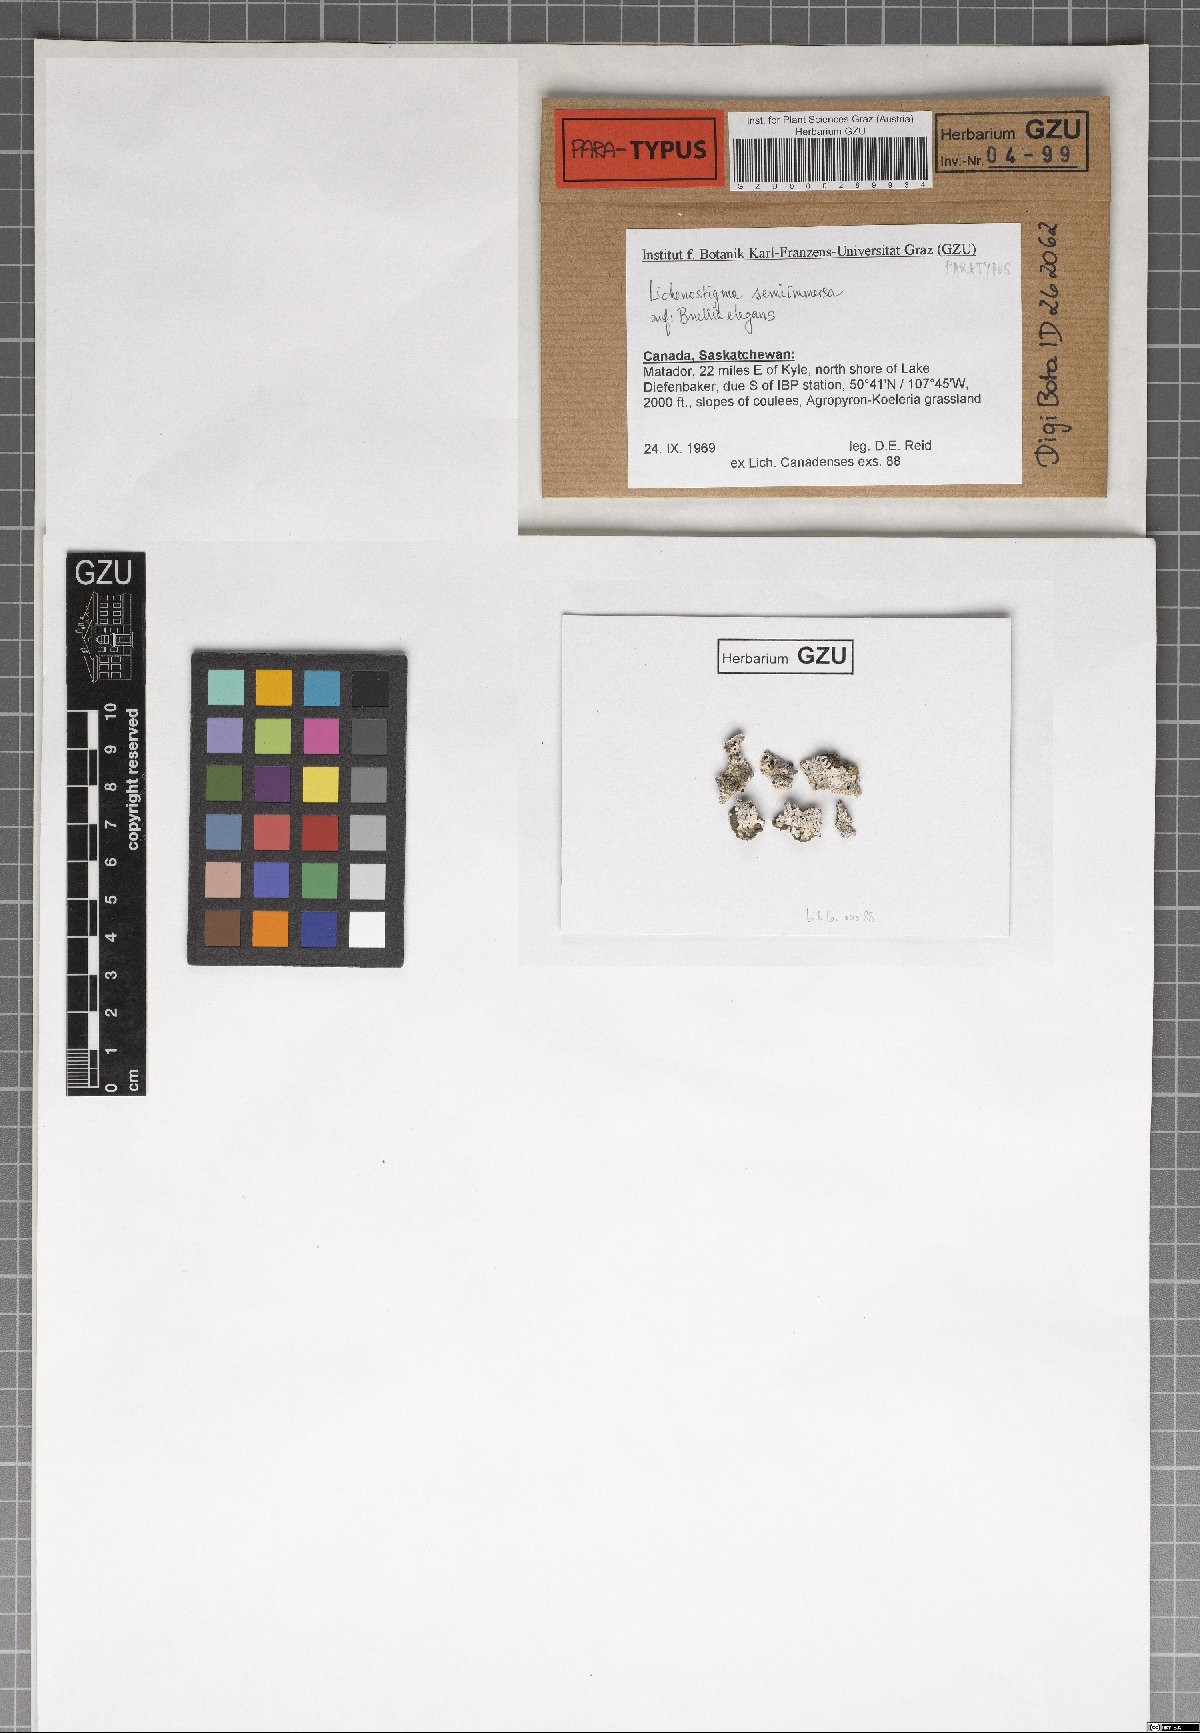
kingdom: Fungi
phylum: Ascomycota
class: Dothideomycetes
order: Lichenotheliales
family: Lichenotheliaceae
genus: Lichenostigma
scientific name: Lichenostigma semi-immersum
